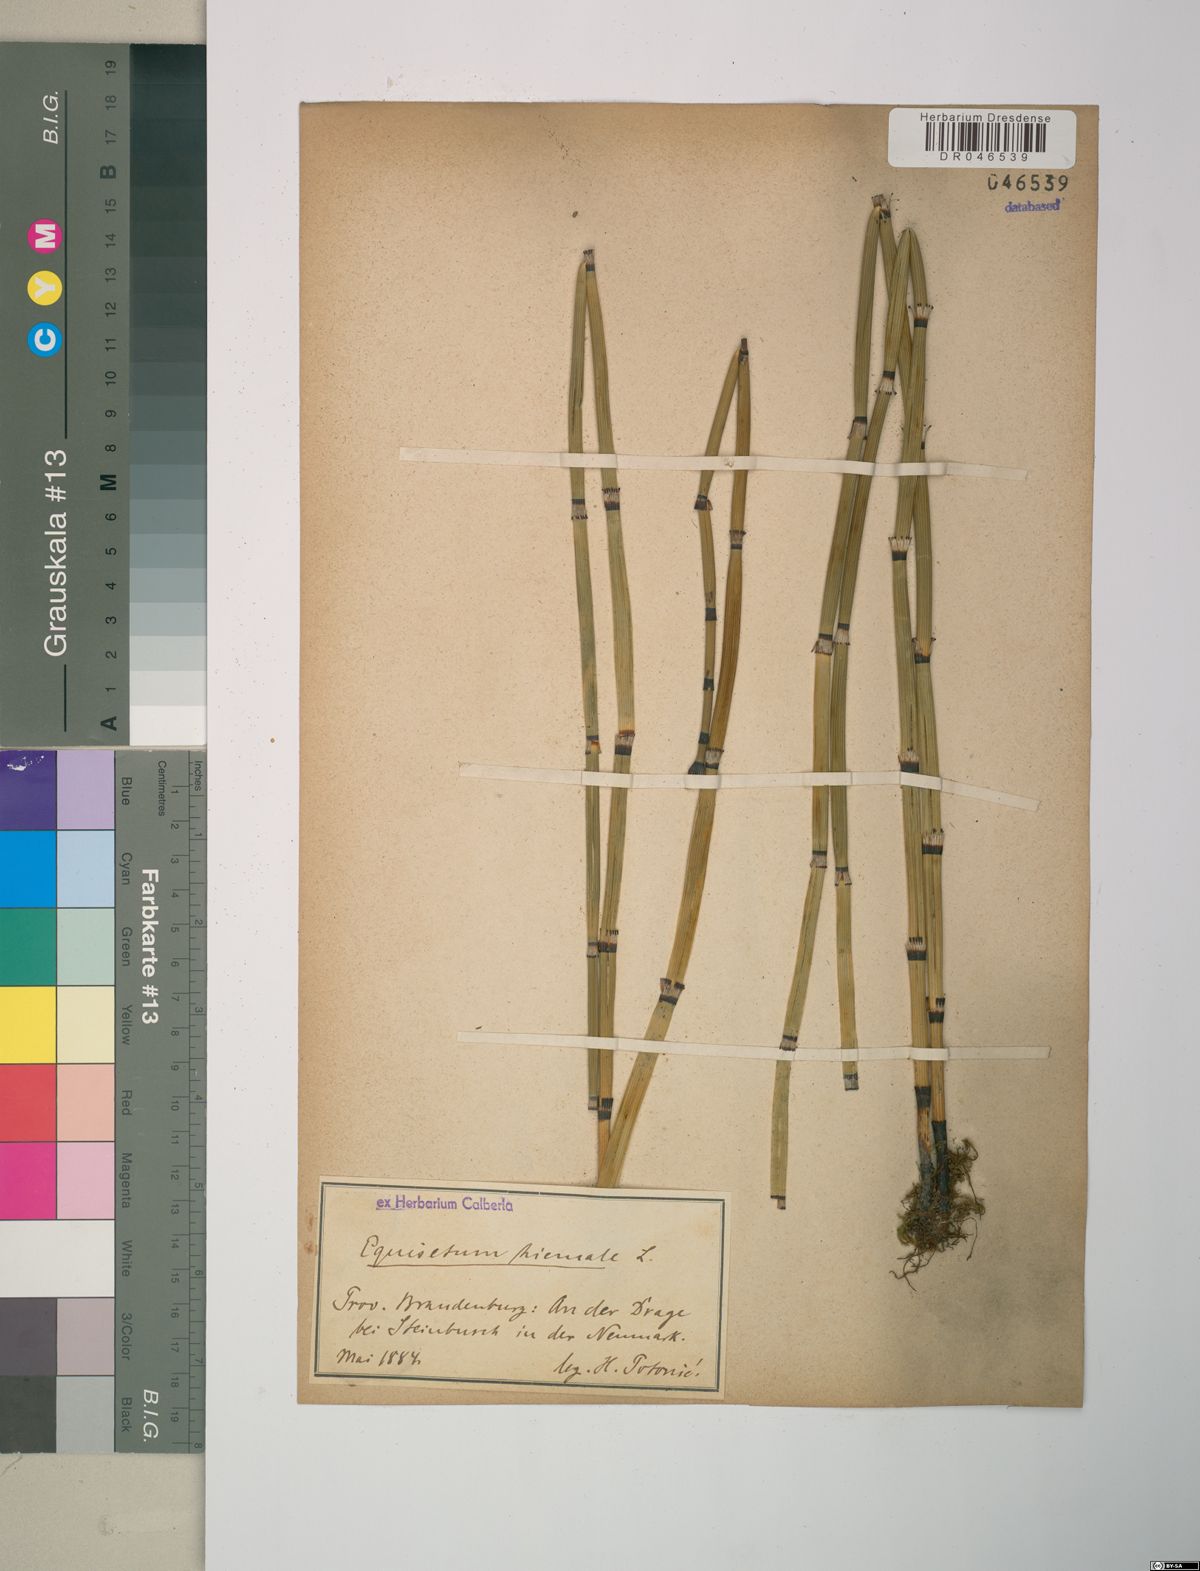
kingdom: Plantae
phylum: Tracheophyta
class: Polypodiopsida
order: Equisetales
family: Equisetaceae
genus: Equisetum
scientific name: Equisetum hyemale
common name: Rough horsetail
